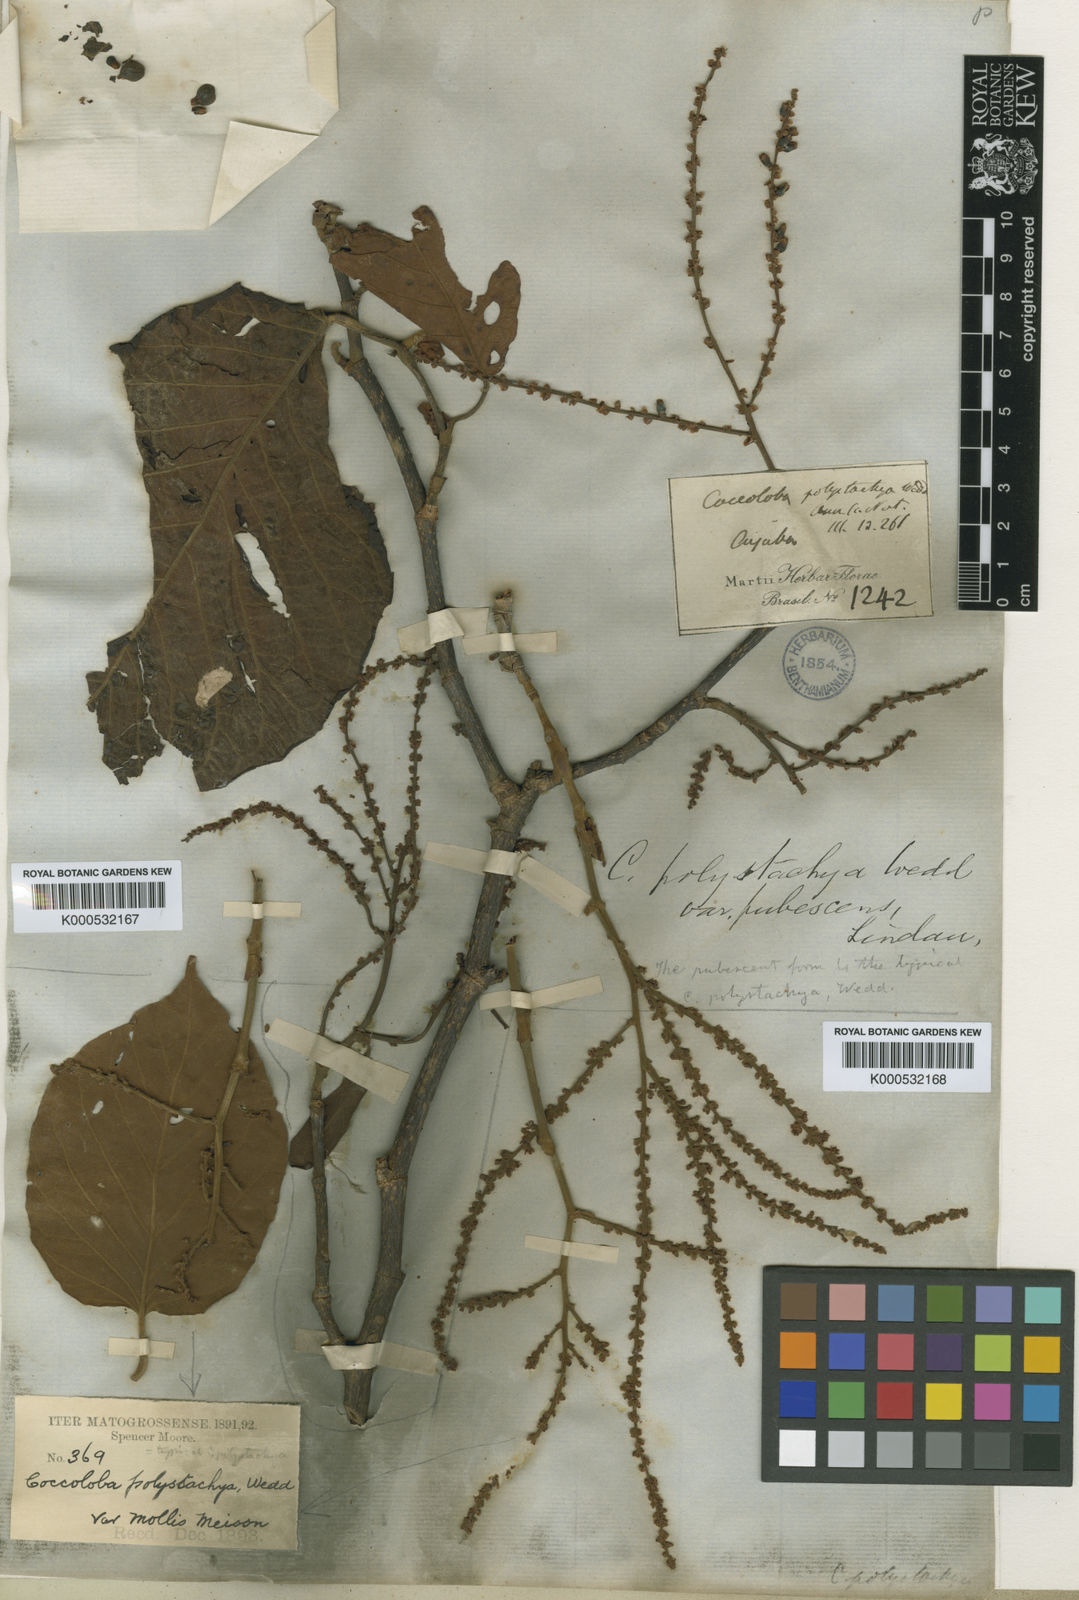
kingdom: Plantae
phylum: Tracheophyta
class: Magnoliopsida
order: Caryophyllales
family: Polygonaceae
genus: Coccoloba
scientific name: Coccoloba mollis
